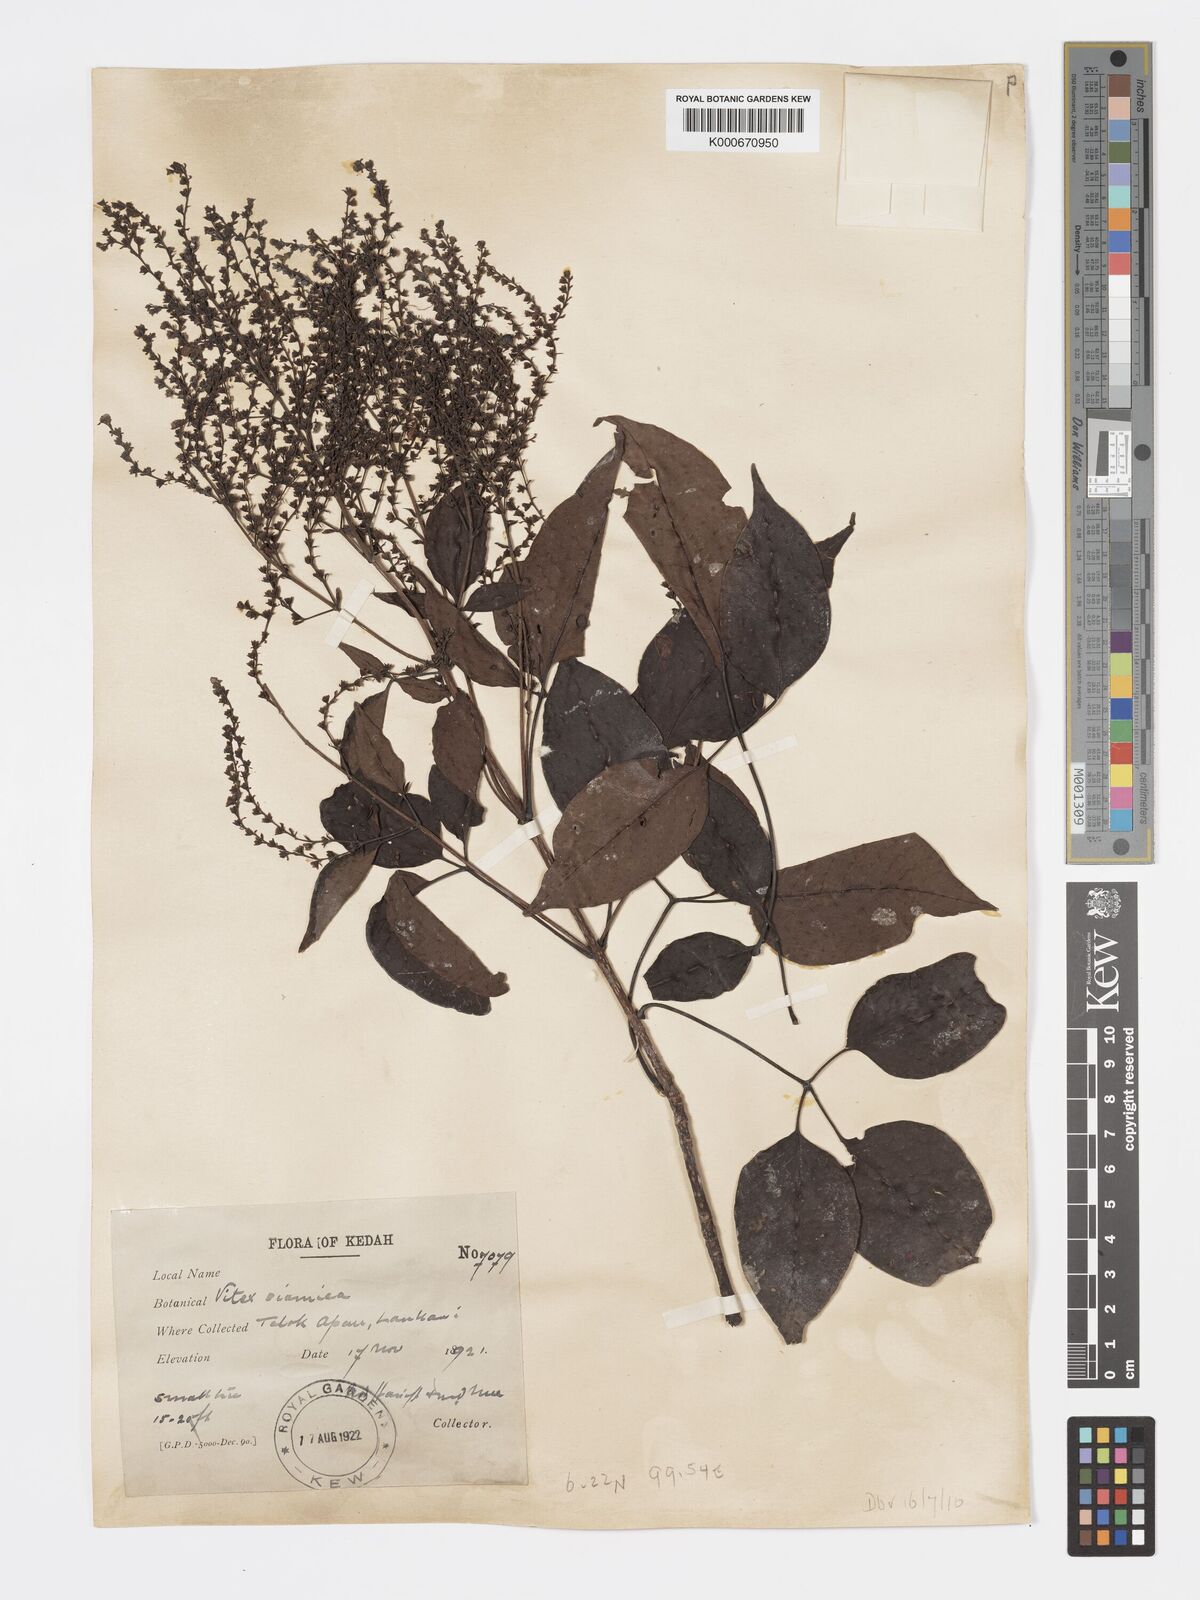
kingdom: Plantae
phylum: Tracheophyta
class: Magnoliopsida
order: Lamiales
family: Lamiaceae
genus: Vitex
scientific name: Vitex siamica
